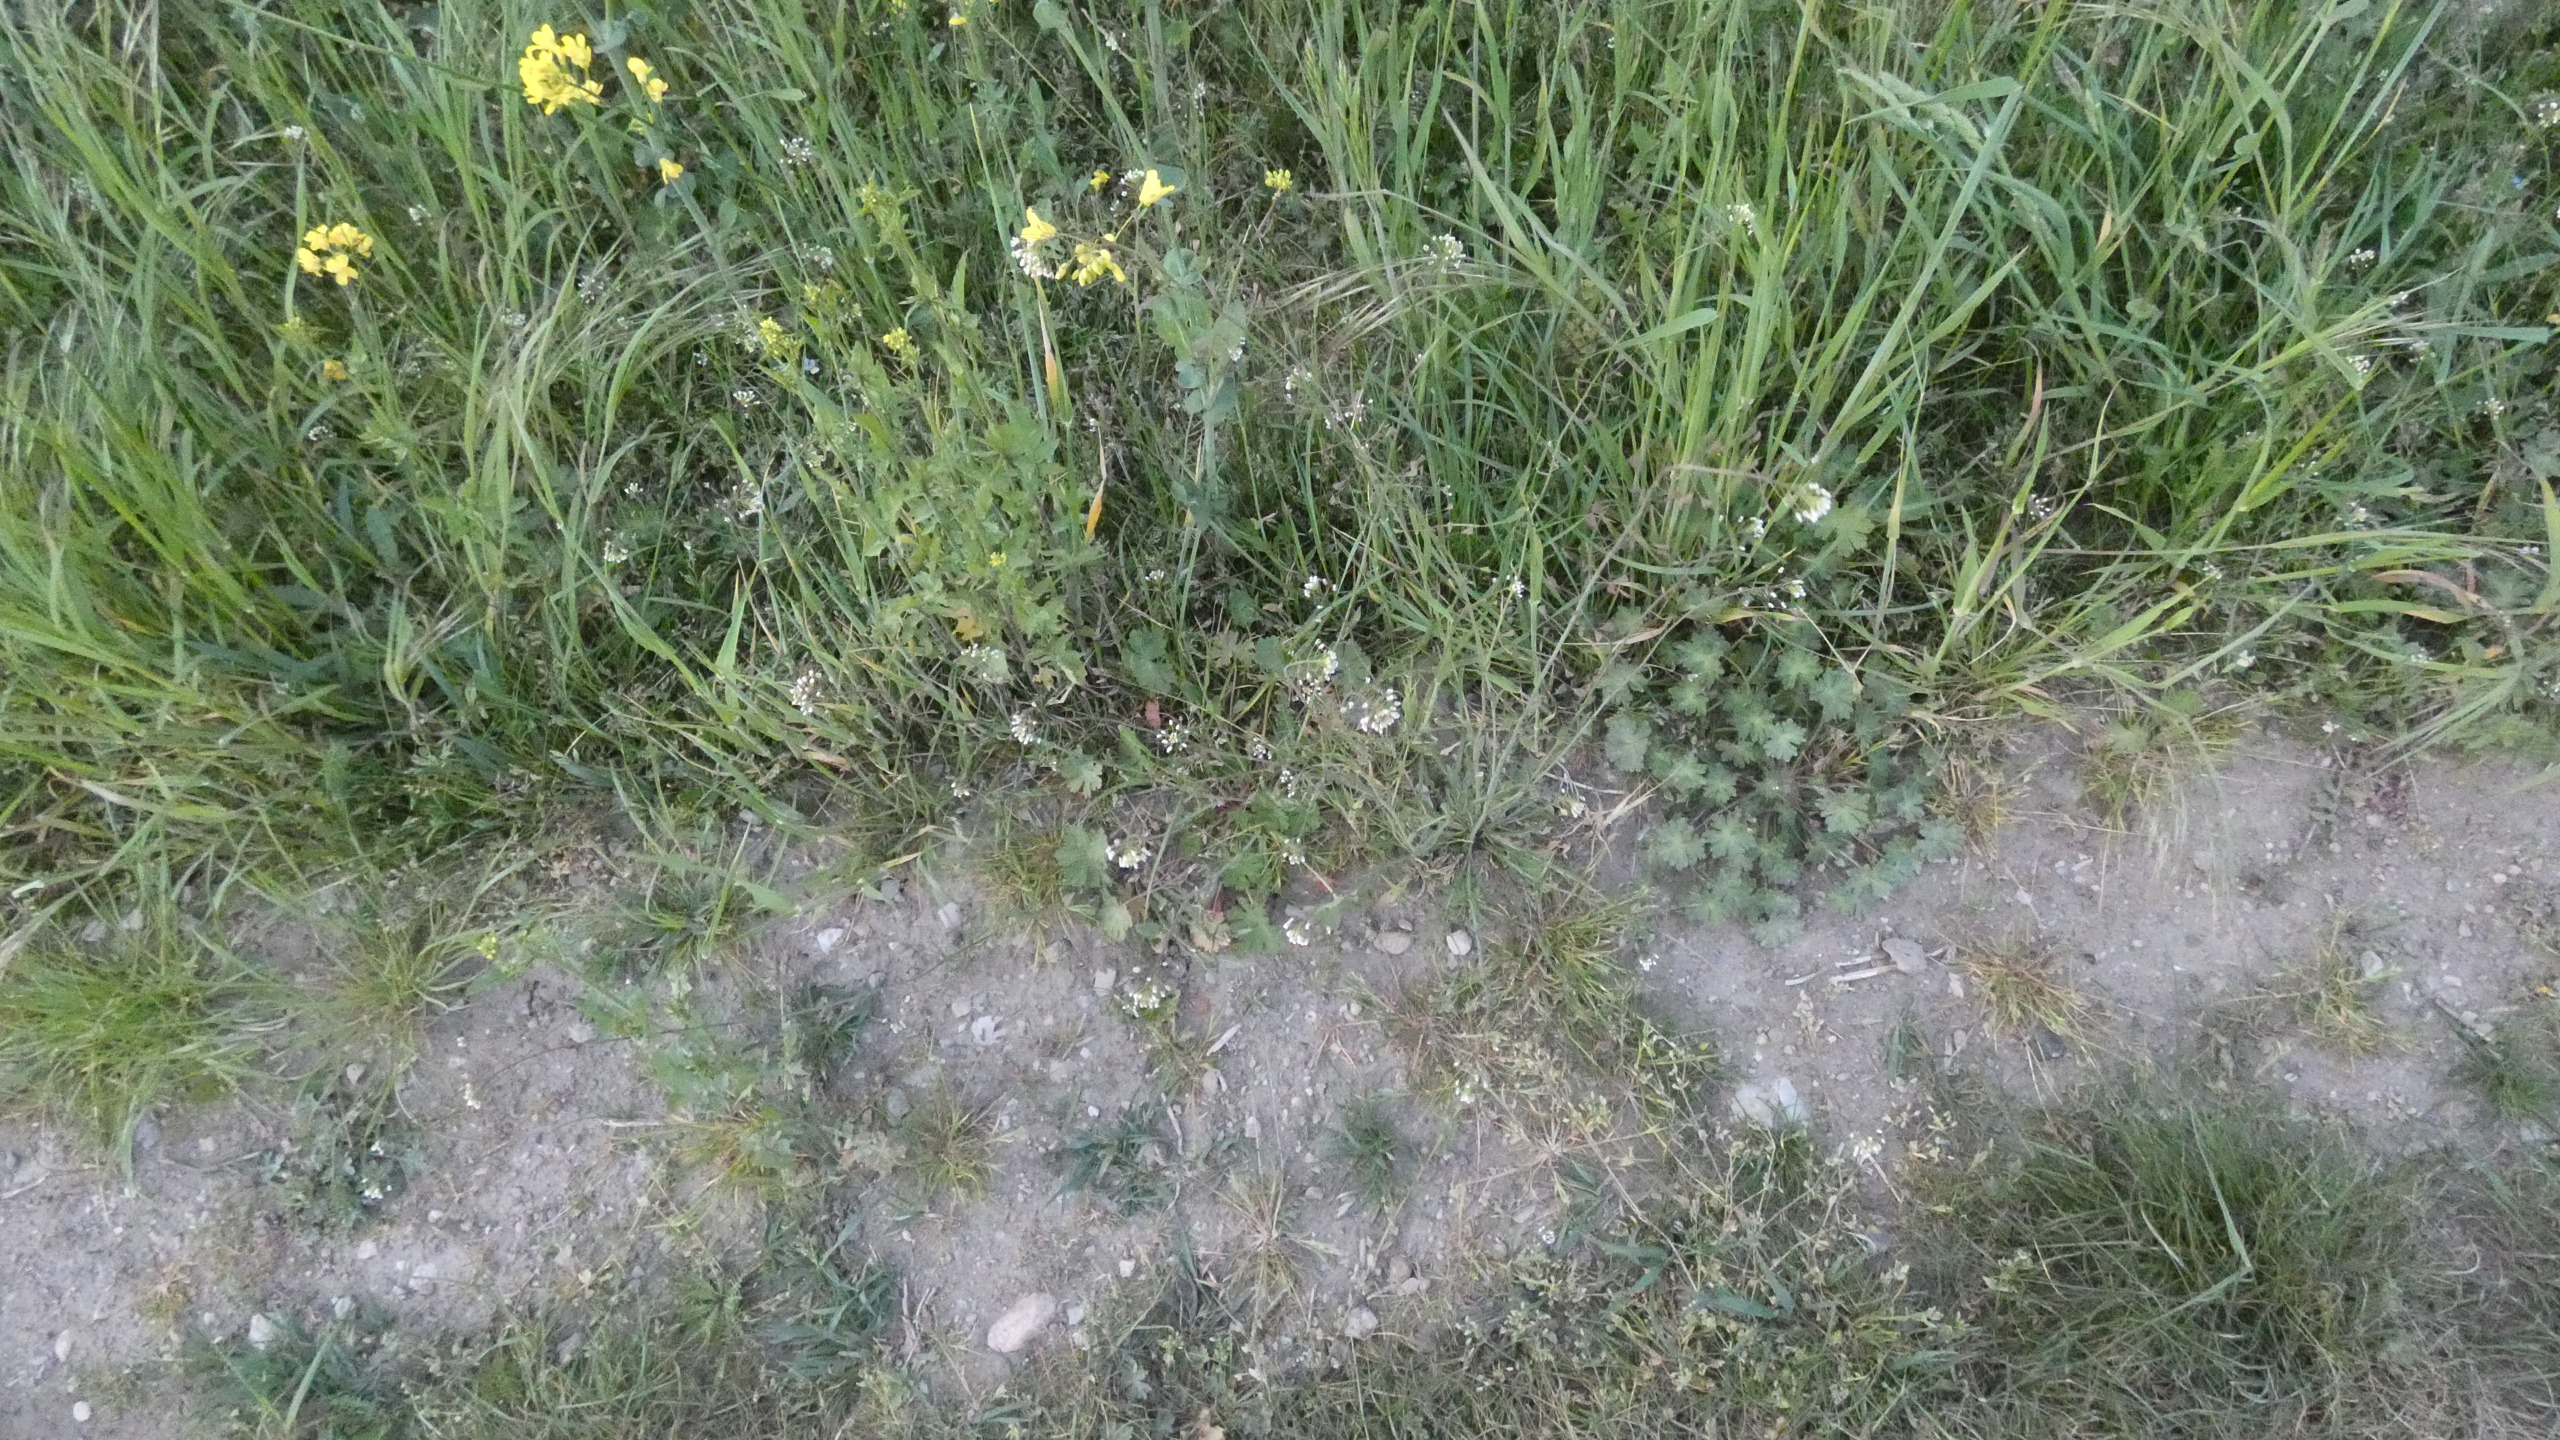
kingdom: Plantae
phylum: Tracheophyta
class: Magnoliopsida
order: Brassicales
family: Brassicaceae
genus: Capsella
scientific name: Capsella bursa-pastoris
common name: Hyrdetaske
